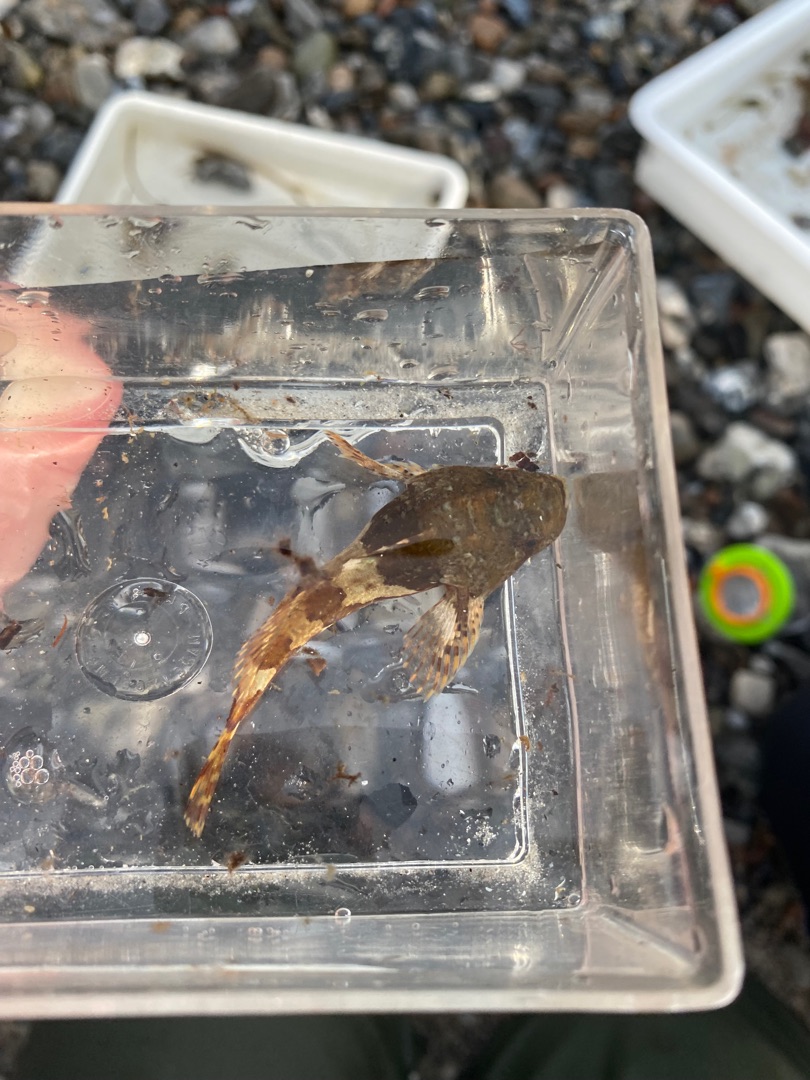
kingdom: Animalia
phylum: Chordata
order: Scorpaeniformes
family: Cottidae
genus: Taurulus
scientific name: Taurulus bubalis
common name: Langtornet ulk
